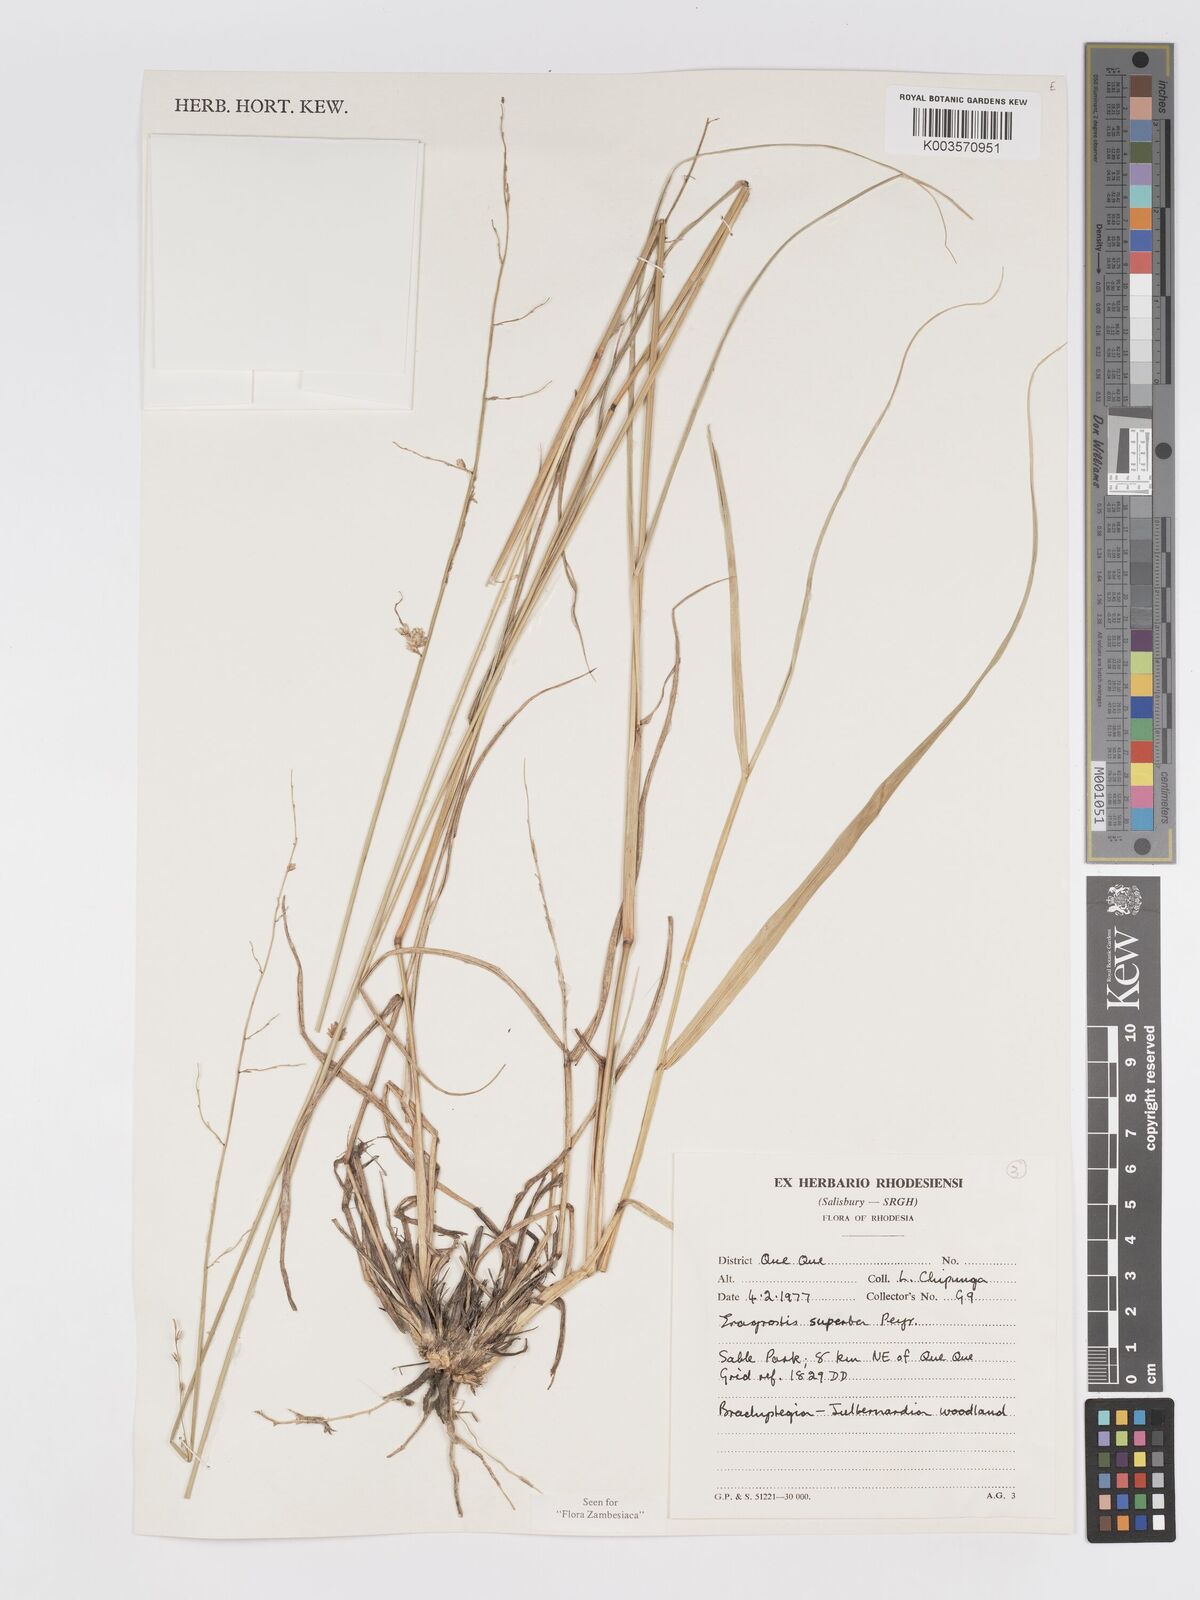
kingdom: Plantae
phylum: Tracheophyta
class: Liliopsida
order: Poales
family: Poaceae
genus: Eragrostis
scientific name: Eragrostis superba
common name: Wilman lovegrass
